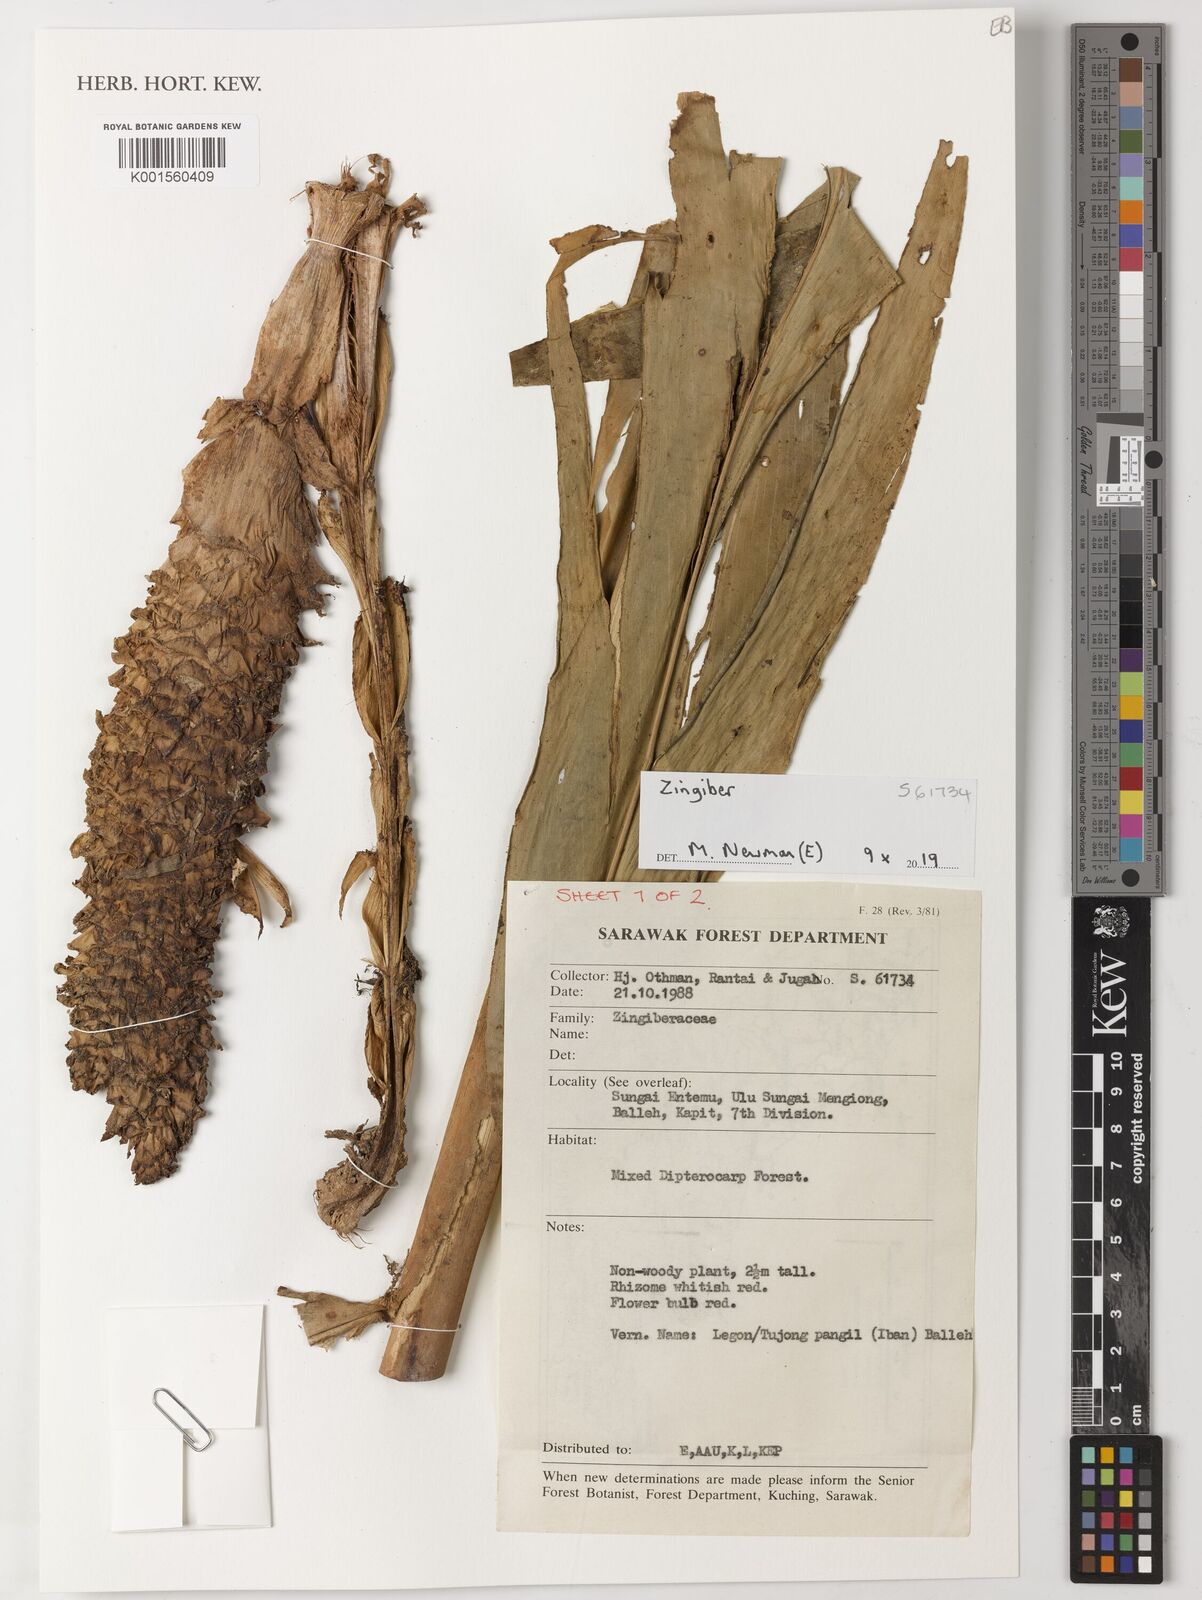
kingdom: Plantae
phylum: Tracheophyta
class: Liliopsida
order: Zingiberales
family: Zingiberaceae
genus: Zingiber
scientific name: Zingiber
